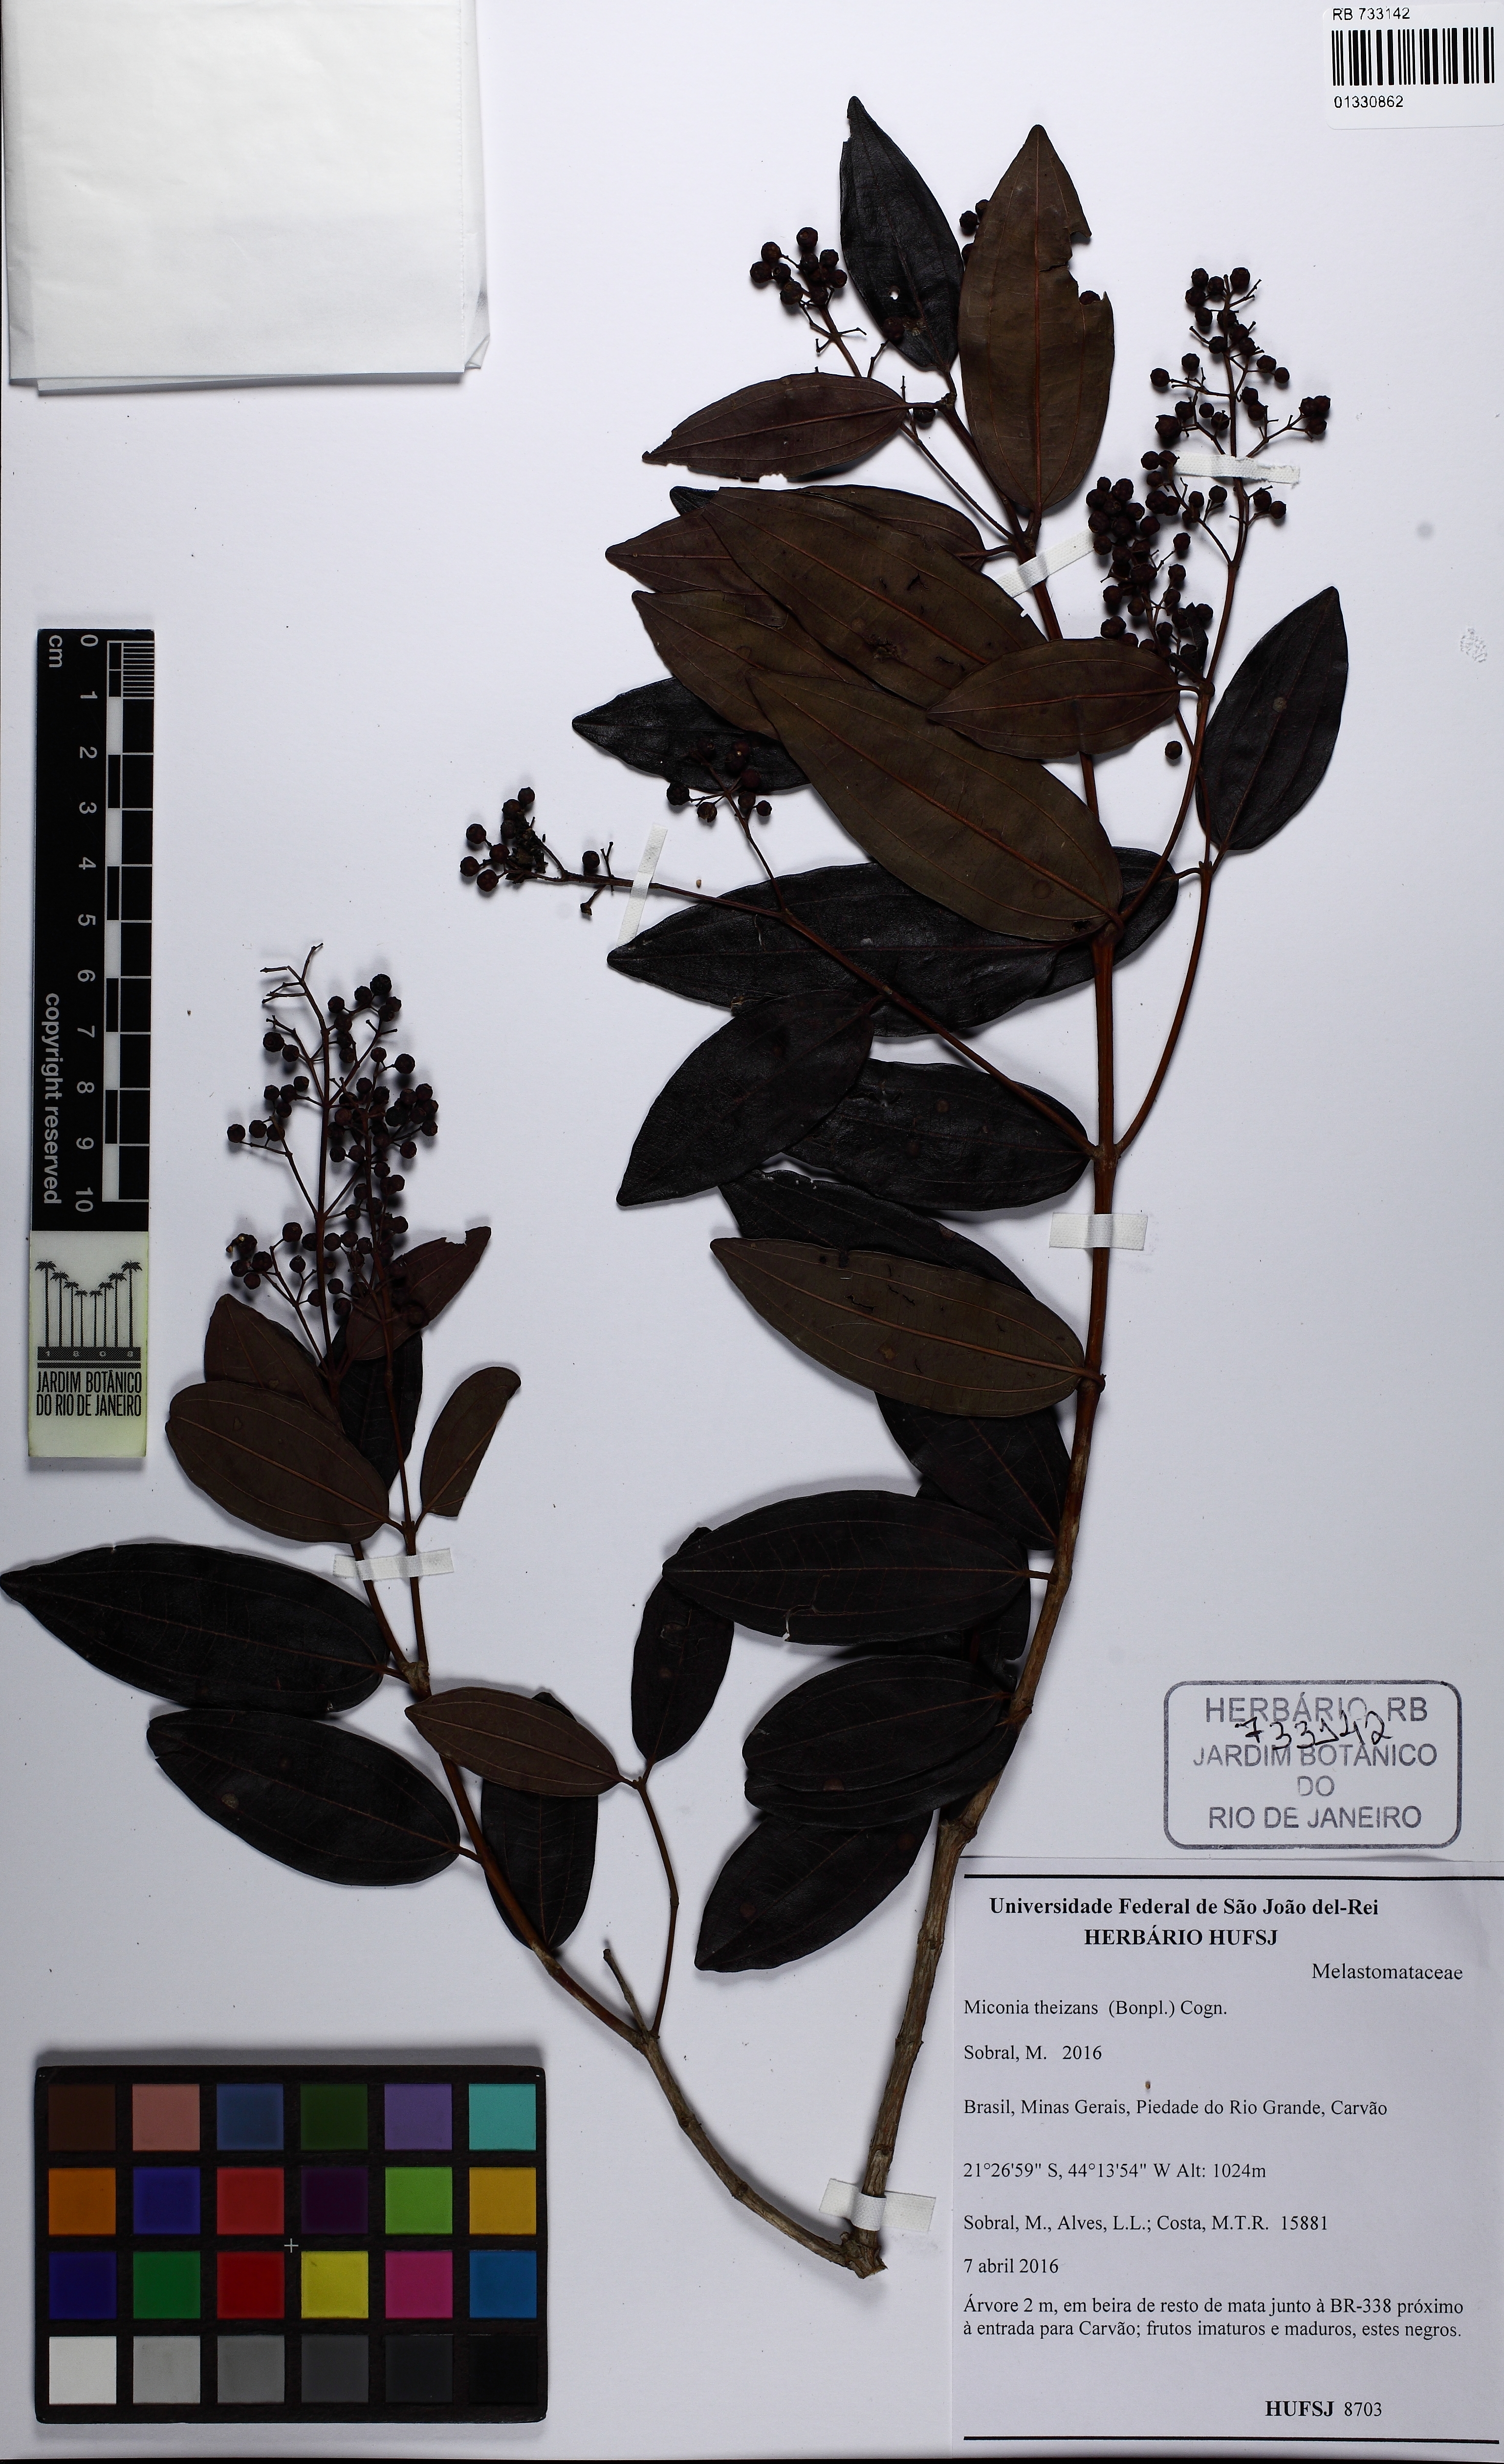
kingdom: Plantae
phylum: Tracheophyta
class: Magnoliopsida
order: Myrtales
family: Melastomataceae
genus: Miconia
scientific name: Miconia theizans
